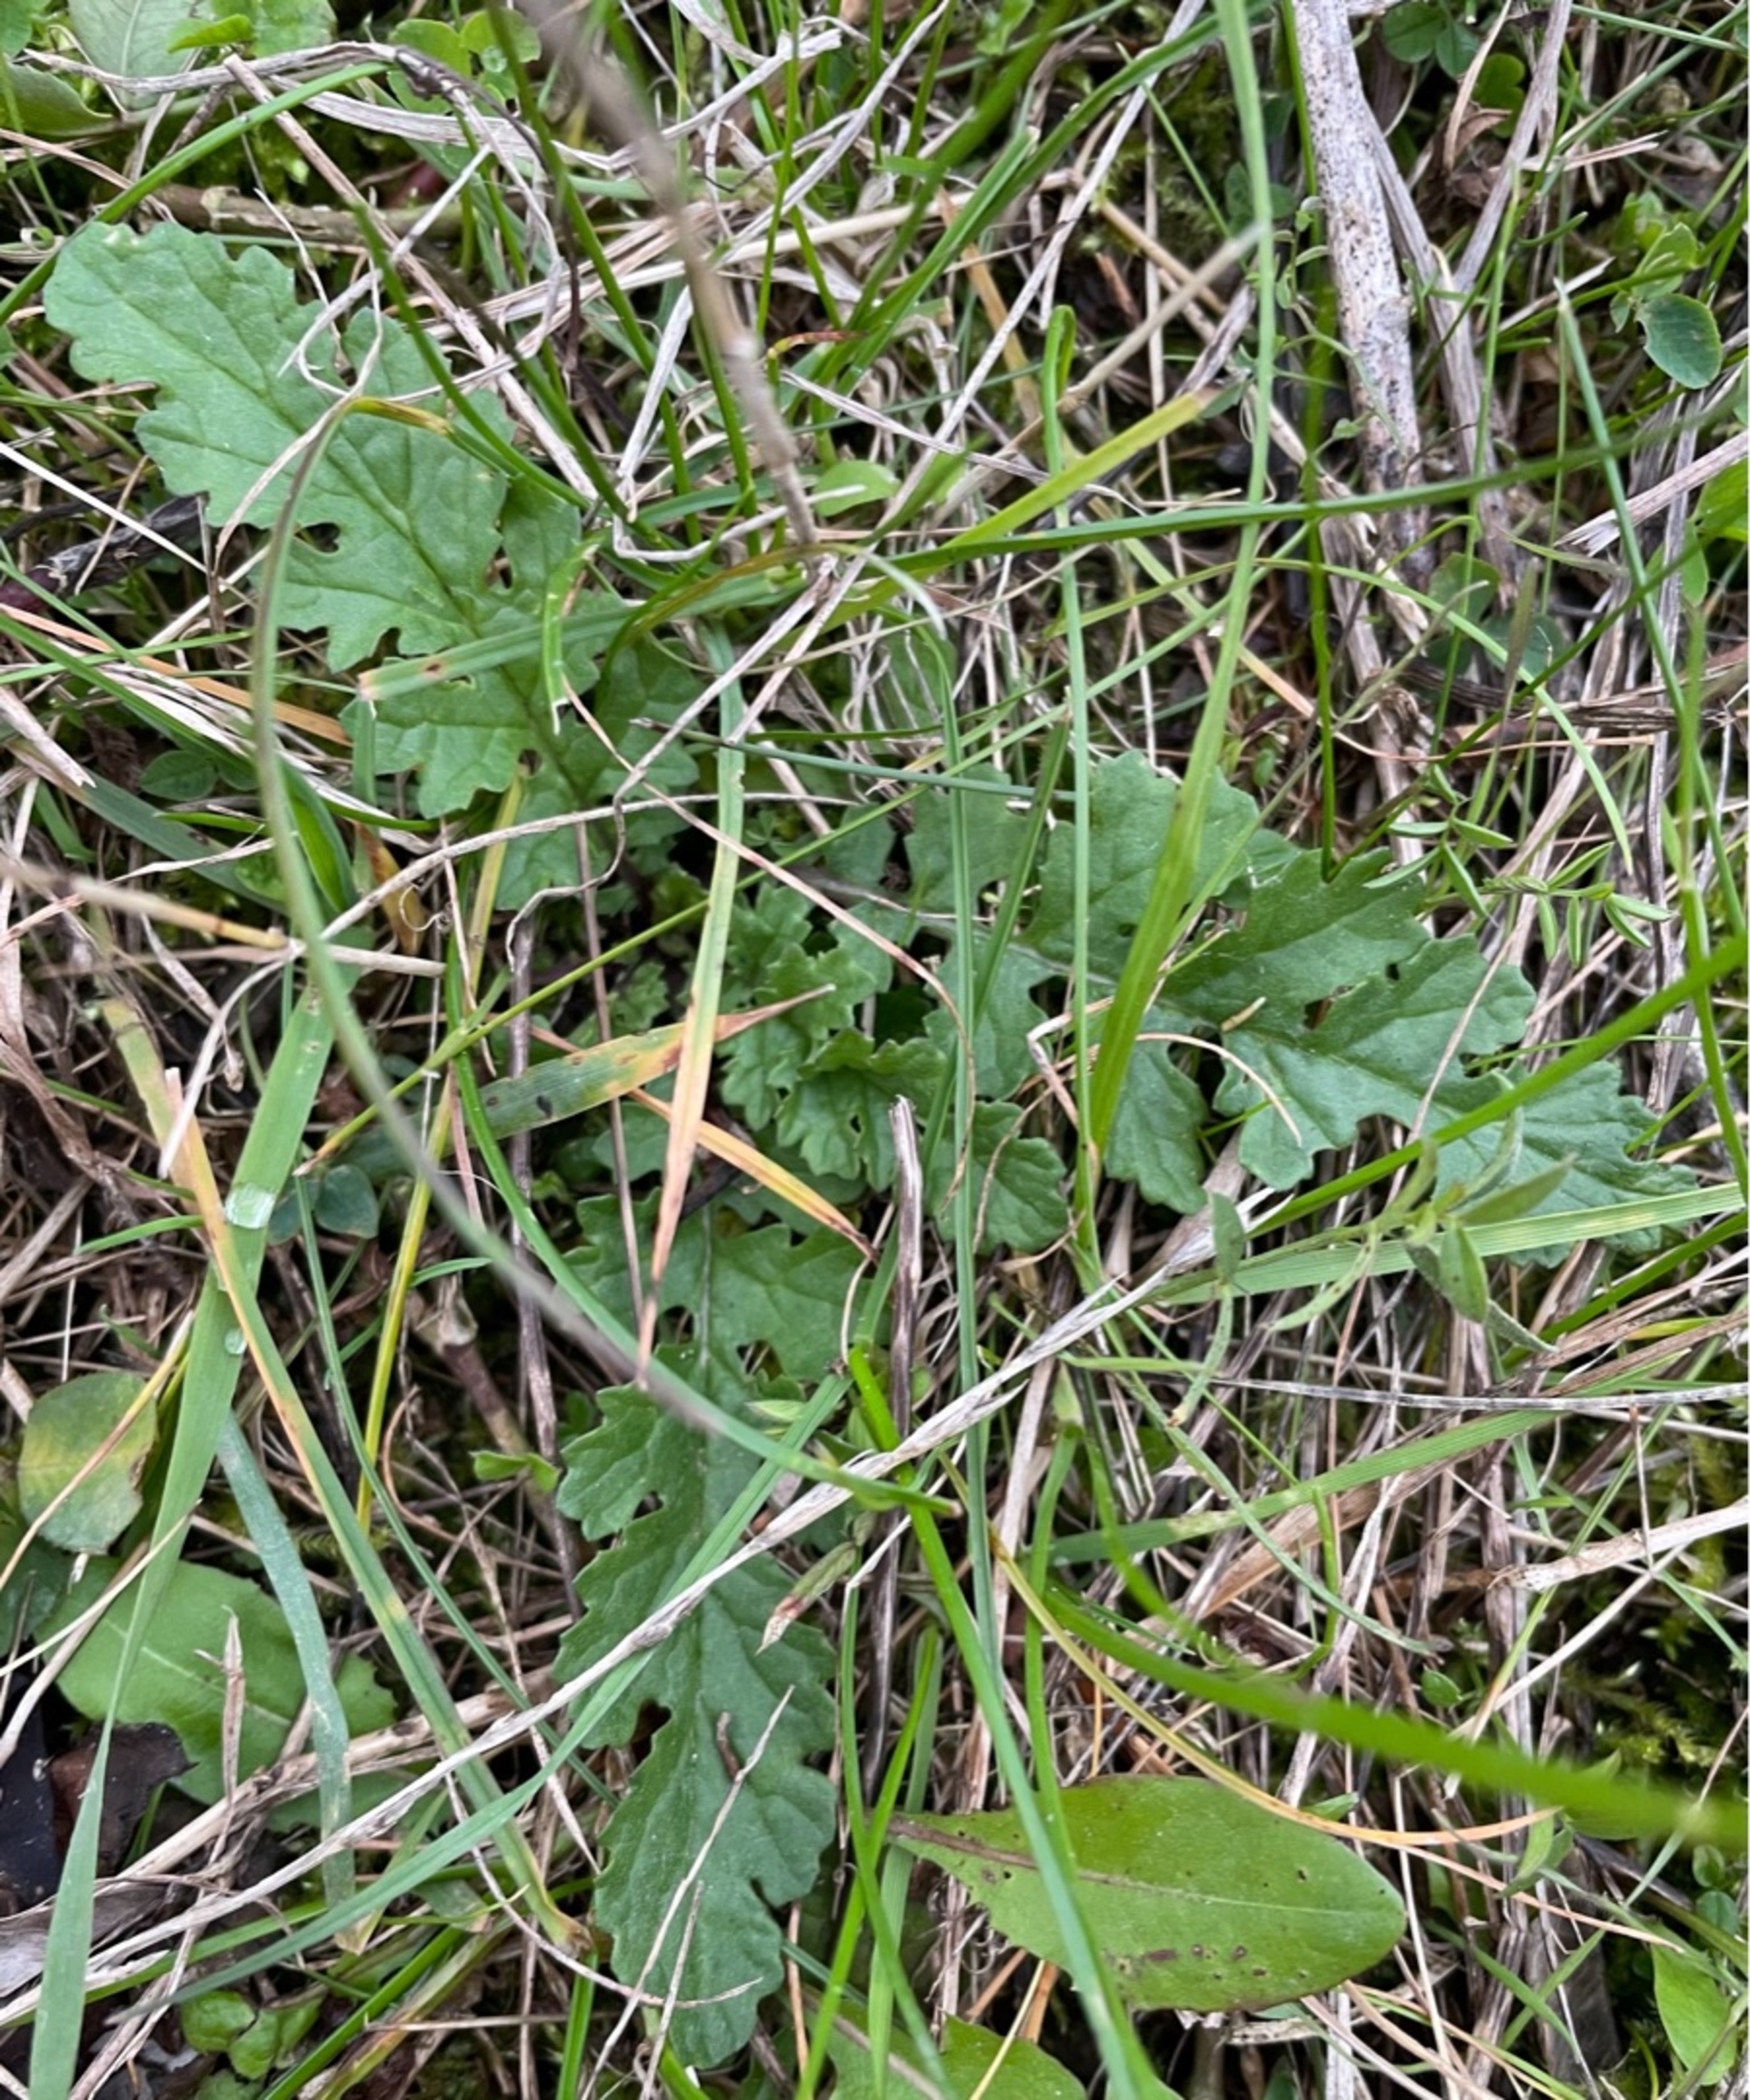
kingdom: Plantae
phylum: Tracheophyta
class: Magnoliopsida
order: Asterales
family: Asteraceae
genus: Jacobaea
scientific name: Jacobaea vulgaris
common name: Eng-brandbæger
